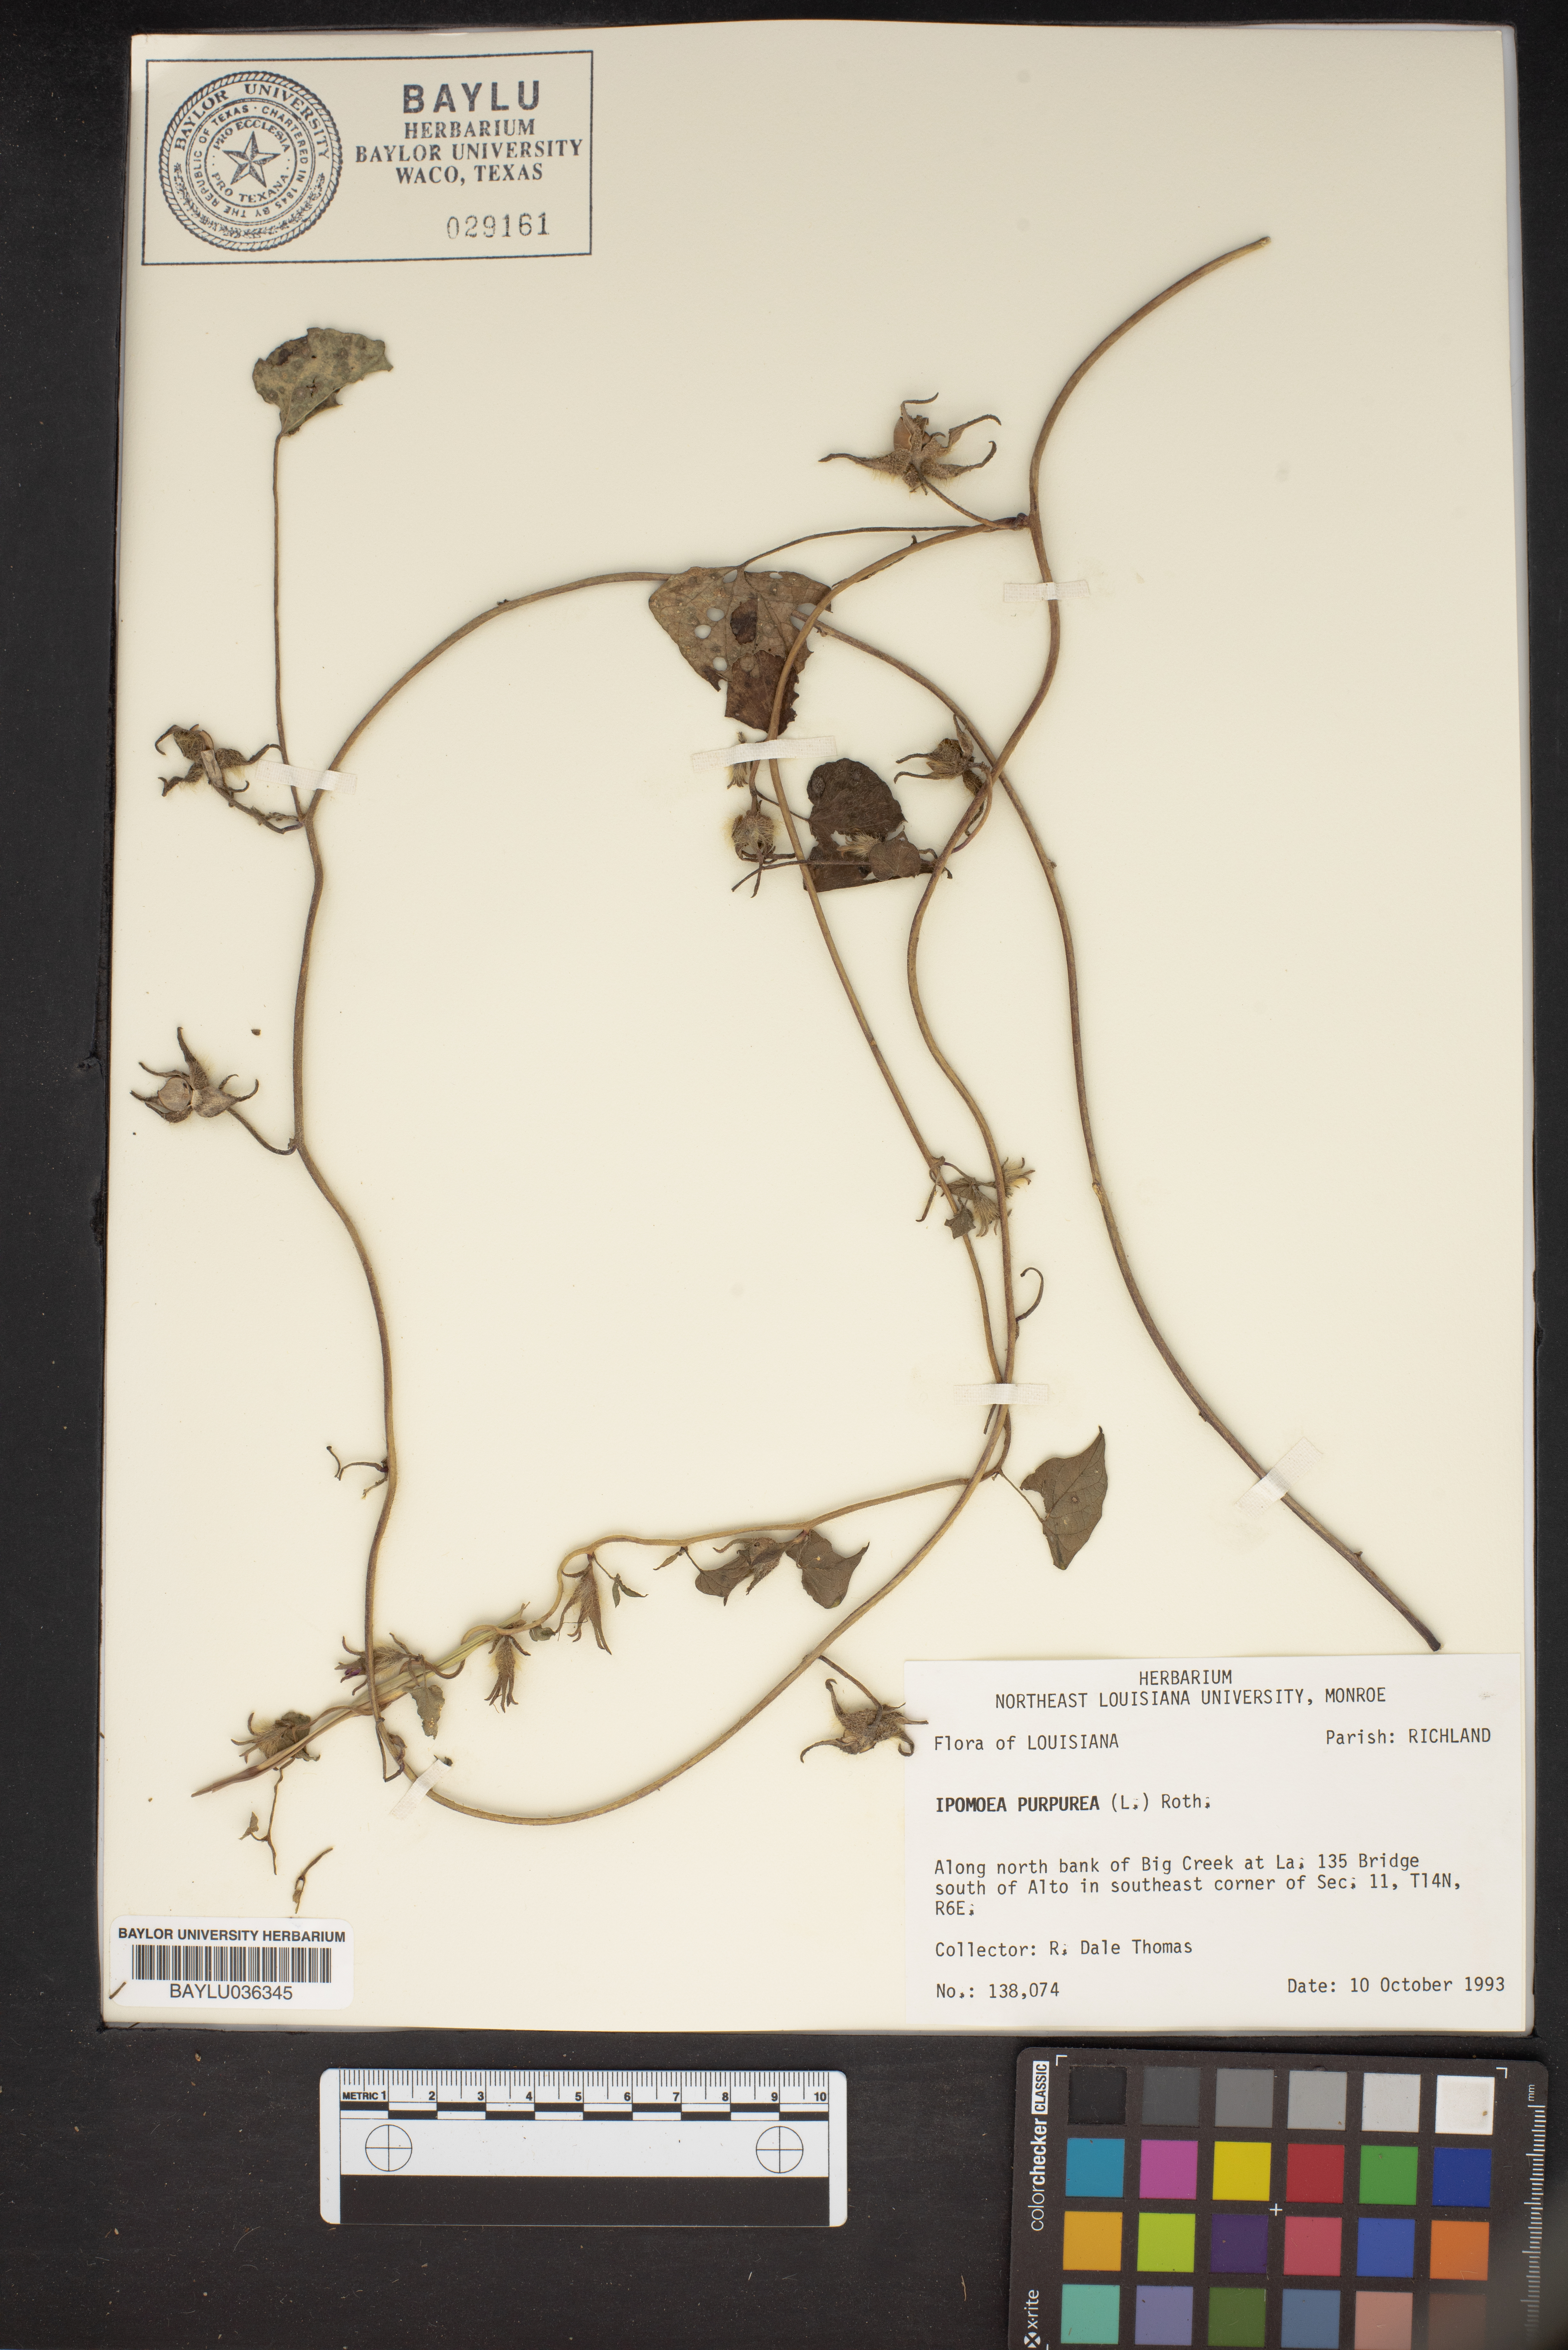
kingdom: Plantae
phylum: Tracheophyta
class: Magnoliopsida
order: Solanales
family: Convolvulaceae
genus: Ipomoea
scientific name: Ipomoea purpurea
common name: Common morning-glory
